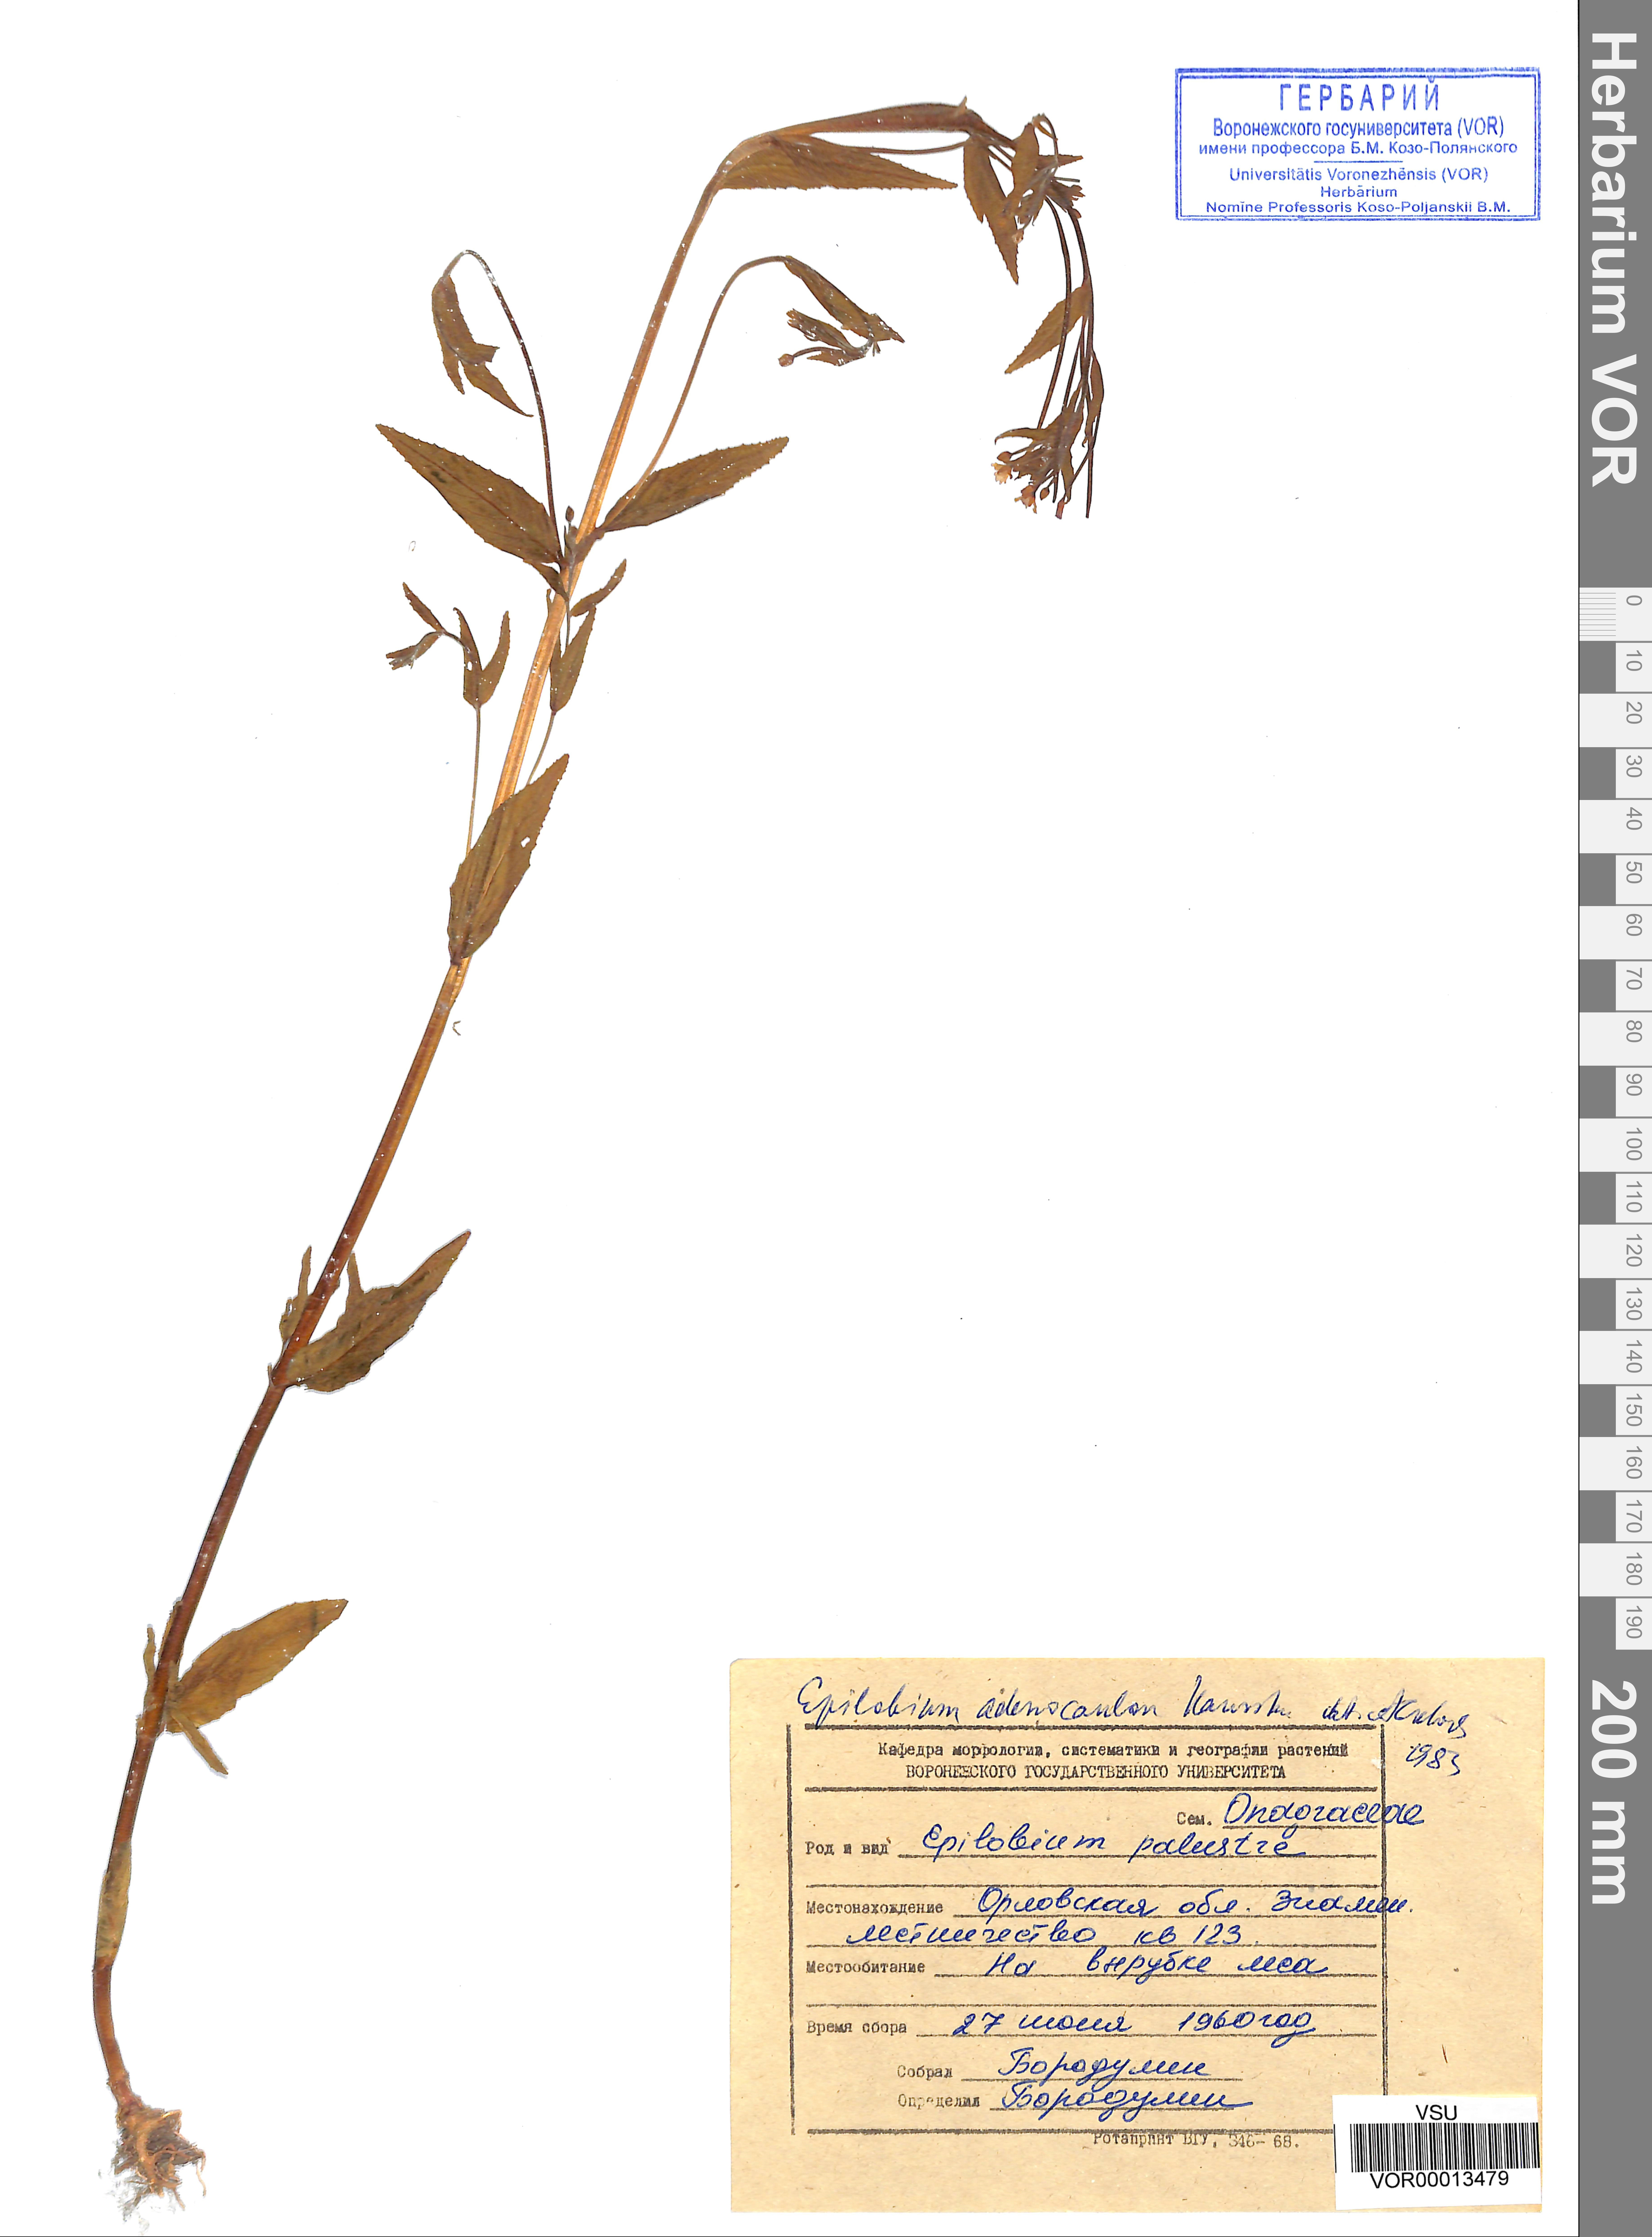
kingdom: Plantae
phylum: Tracheophyta
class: Magnoliopsida
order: Myrtales
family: Onagraceae
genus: Epilobium
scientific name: Epilobium ciliatum
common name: American willowherb
